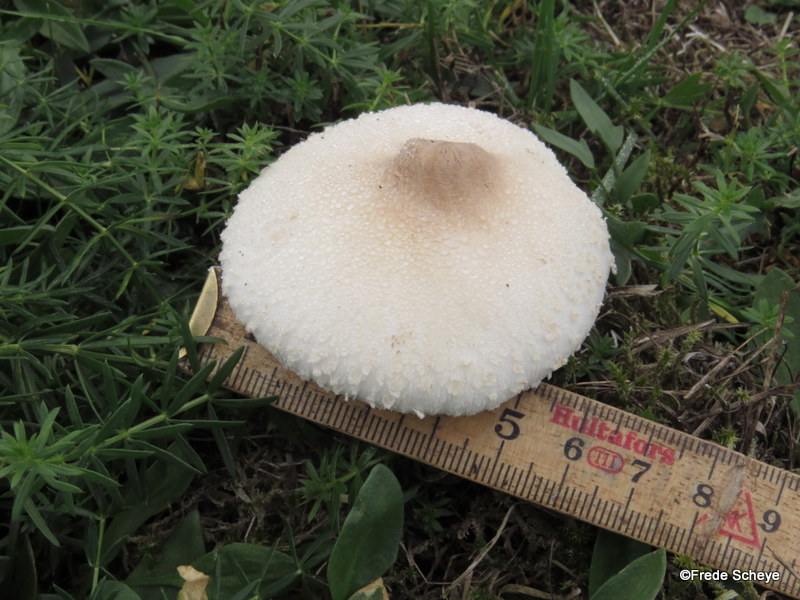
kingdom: Fungi
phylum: Basidiomycota
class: Agaricomycetes
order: Agaricales
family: Agaricaceae
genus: Macrolepiota
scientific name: Macrolepiota excoriata
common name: mark-kæmpeparasolhat
